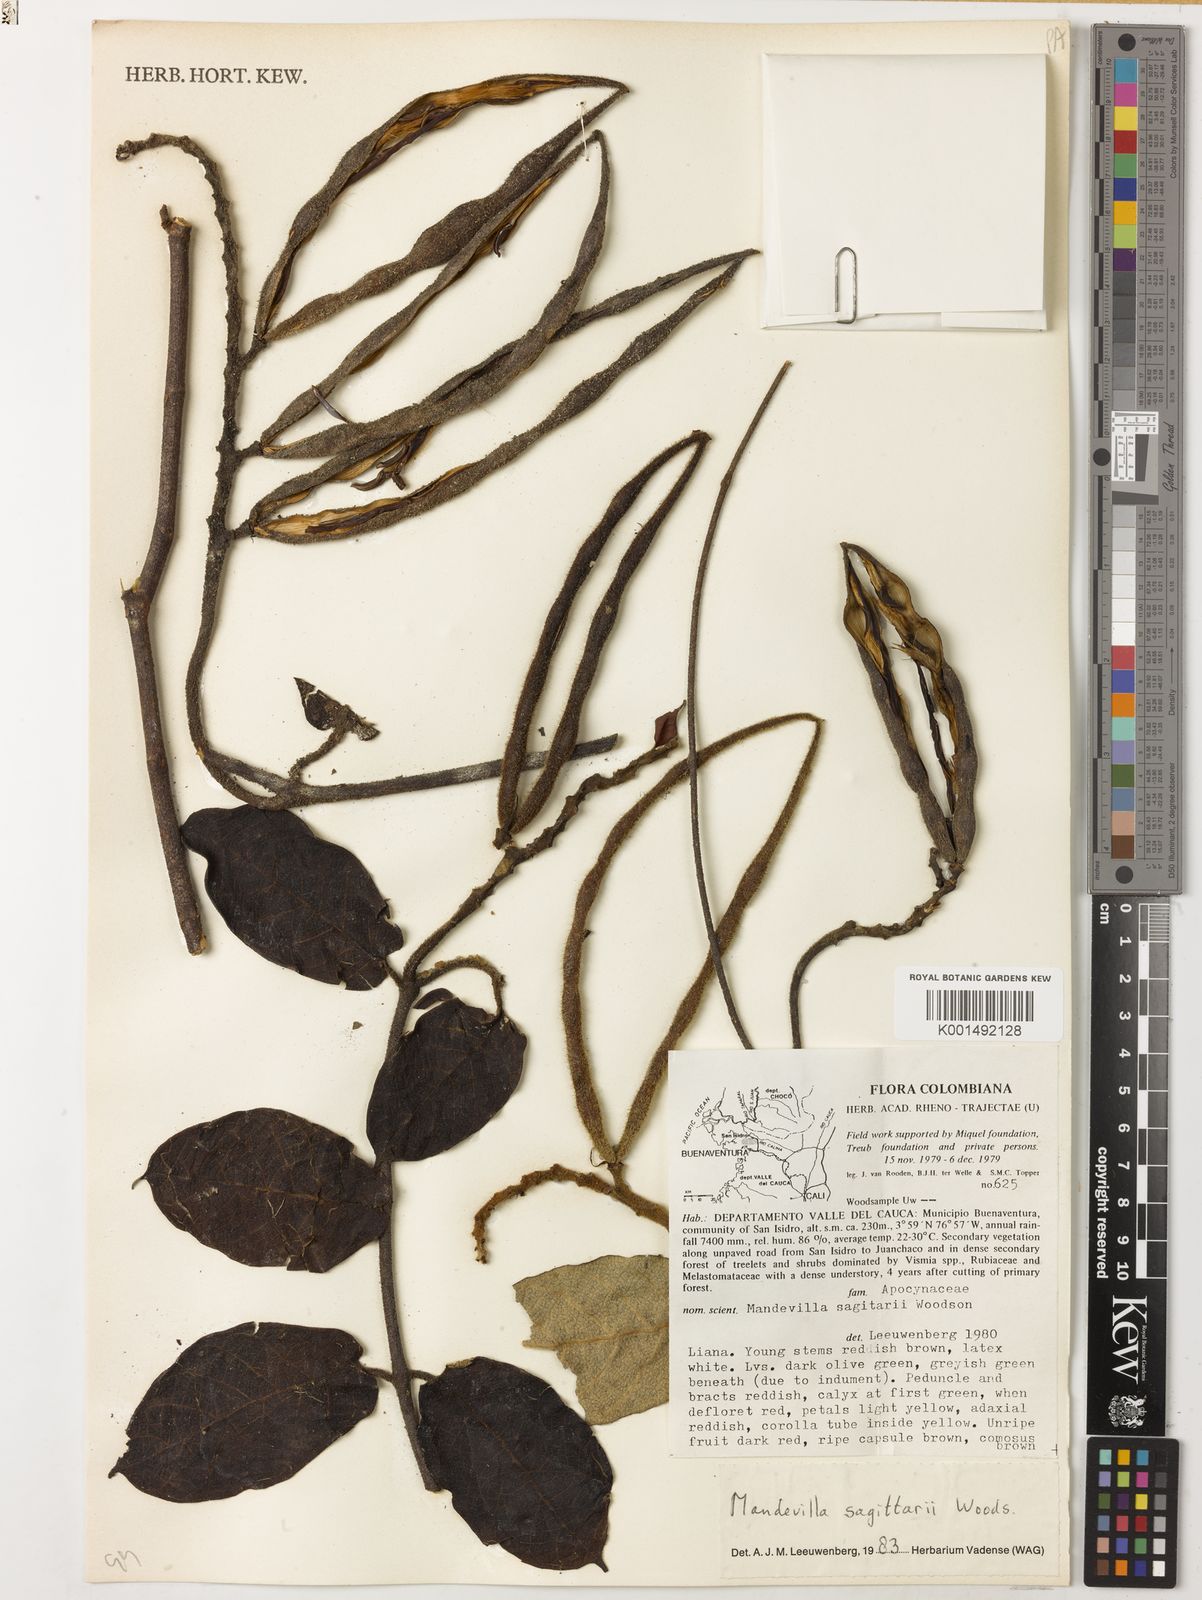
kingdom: Plantae
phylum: Tracheophyta
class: Magnoliopsida
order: Gentianales
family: Apocynaceae
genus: Mandevilla
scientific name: Mandevilla sagittarii
